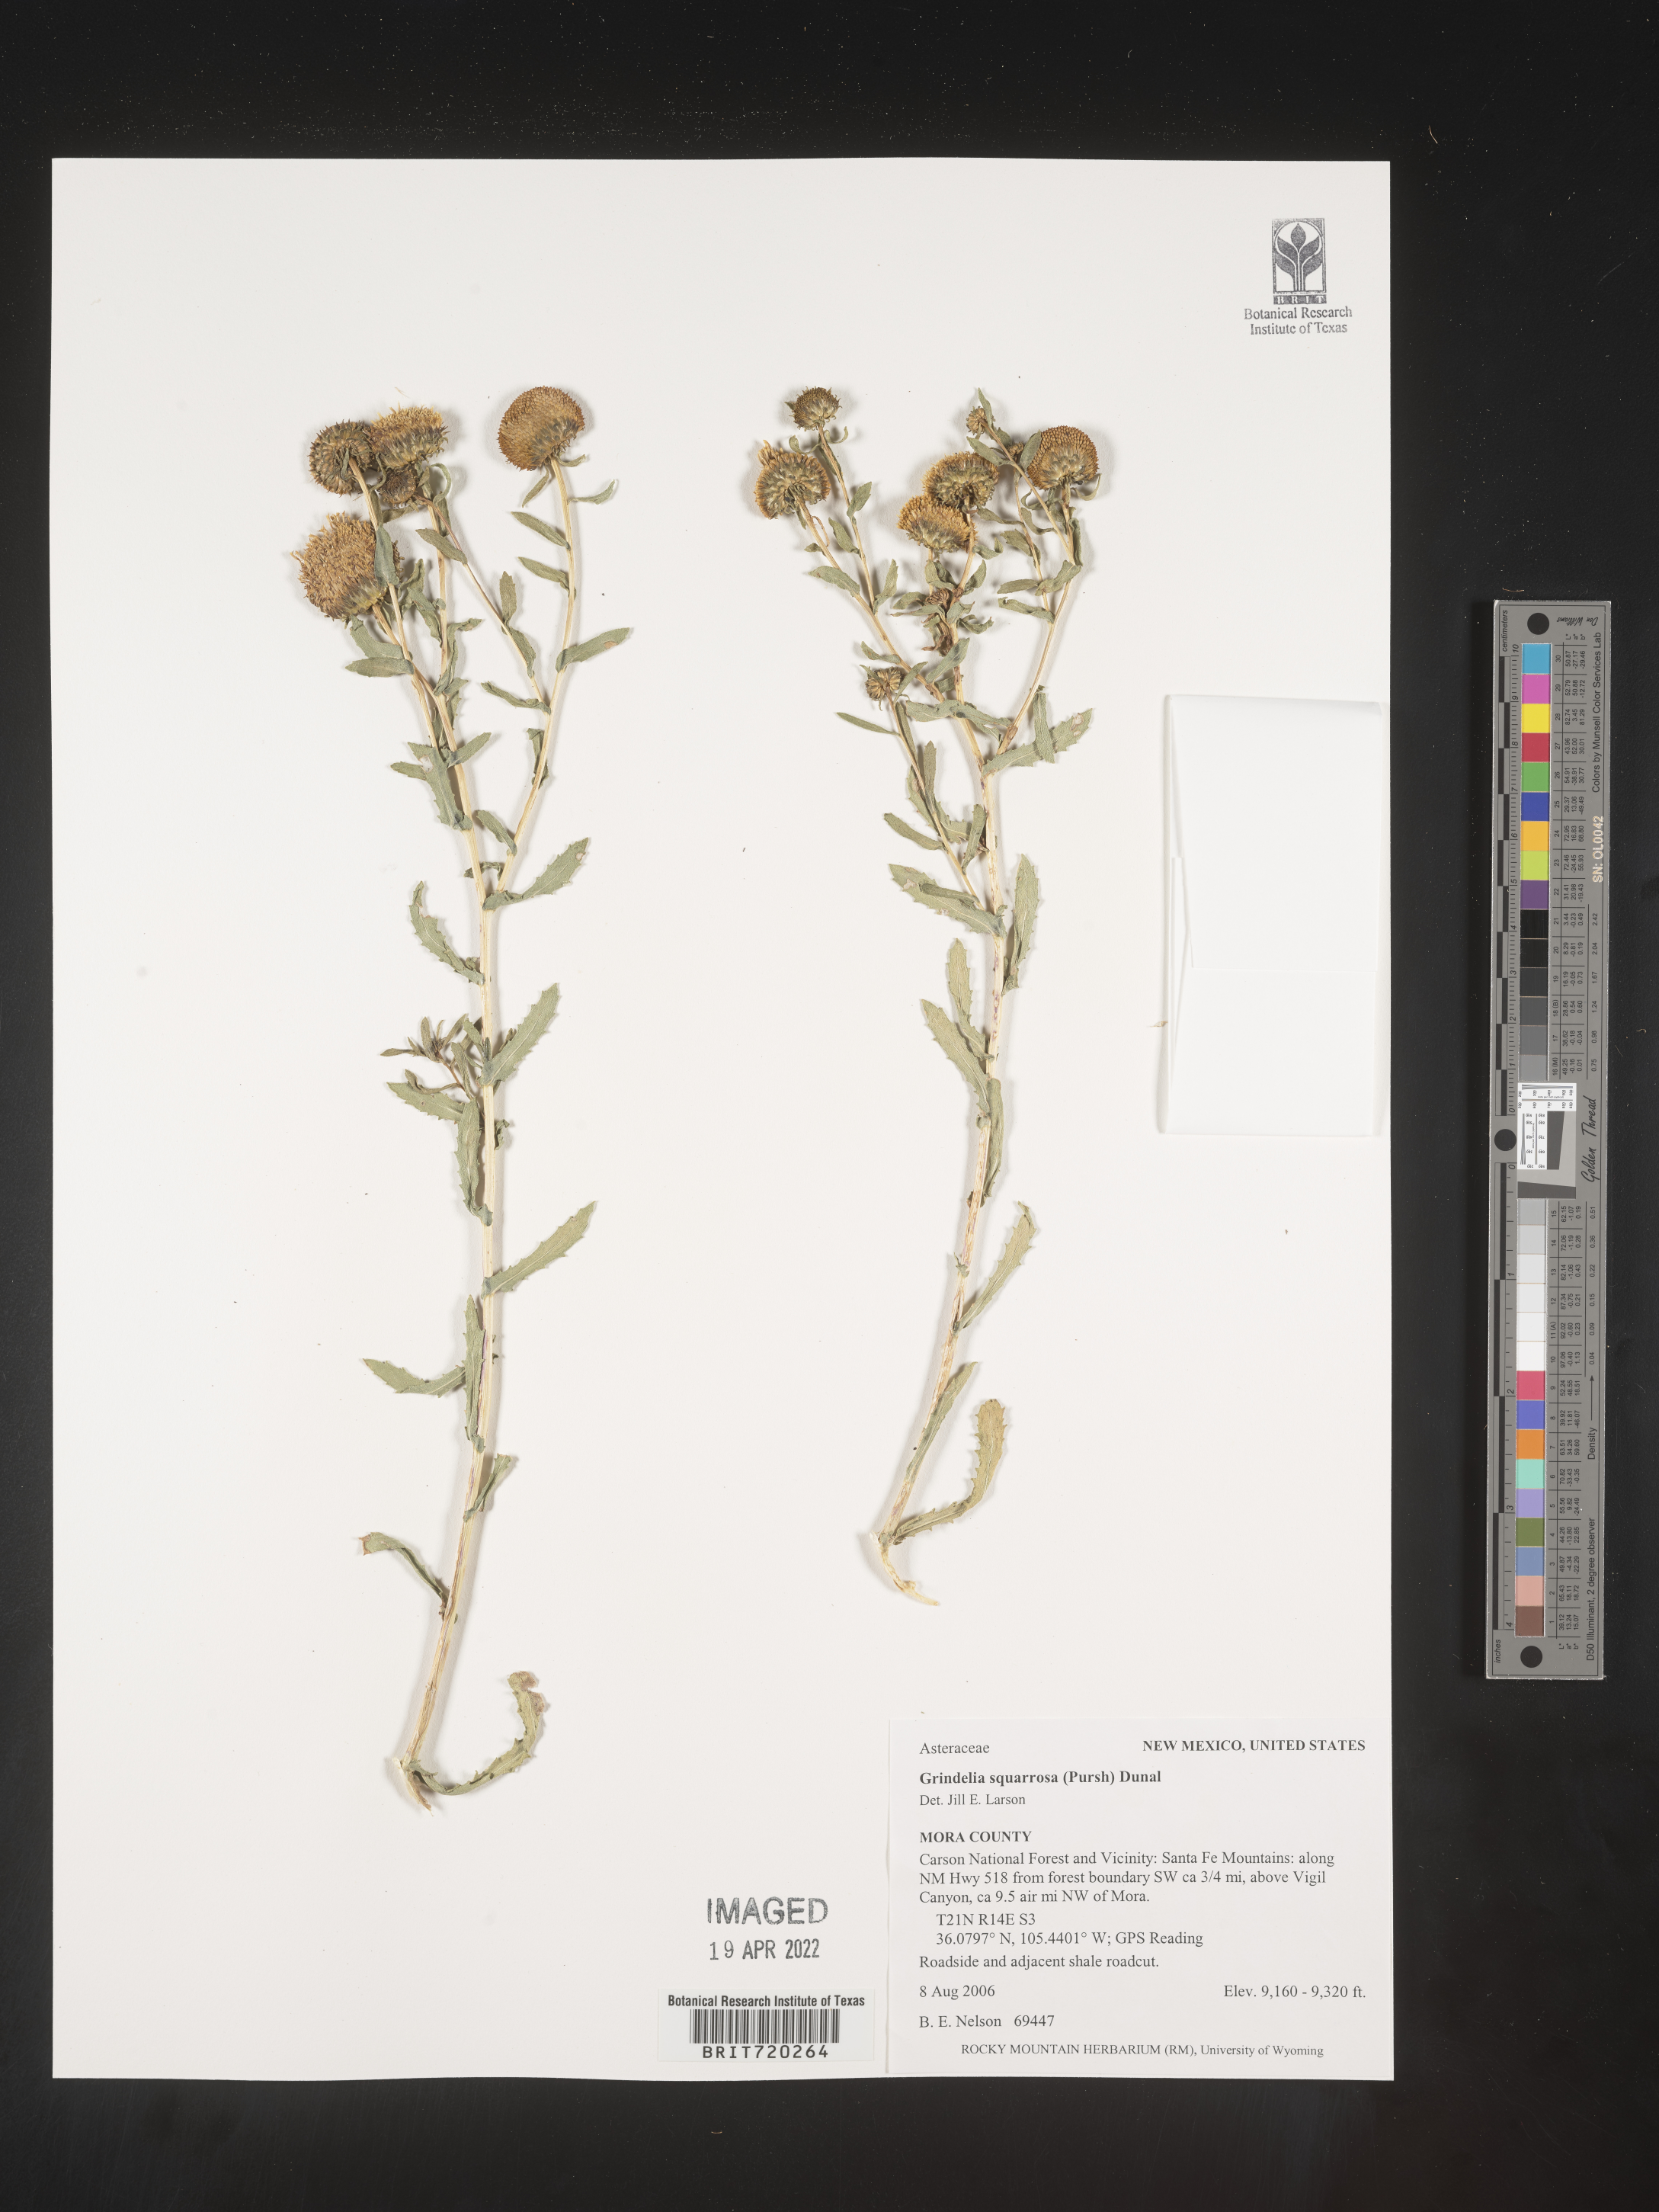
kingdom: Plantae
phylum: Tracheophyta
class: Magnoliopsida
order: Asterales
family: Asteraceae
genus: Grindelia
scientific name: Grindelia squarrosa
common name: Curly-cup gumweed
